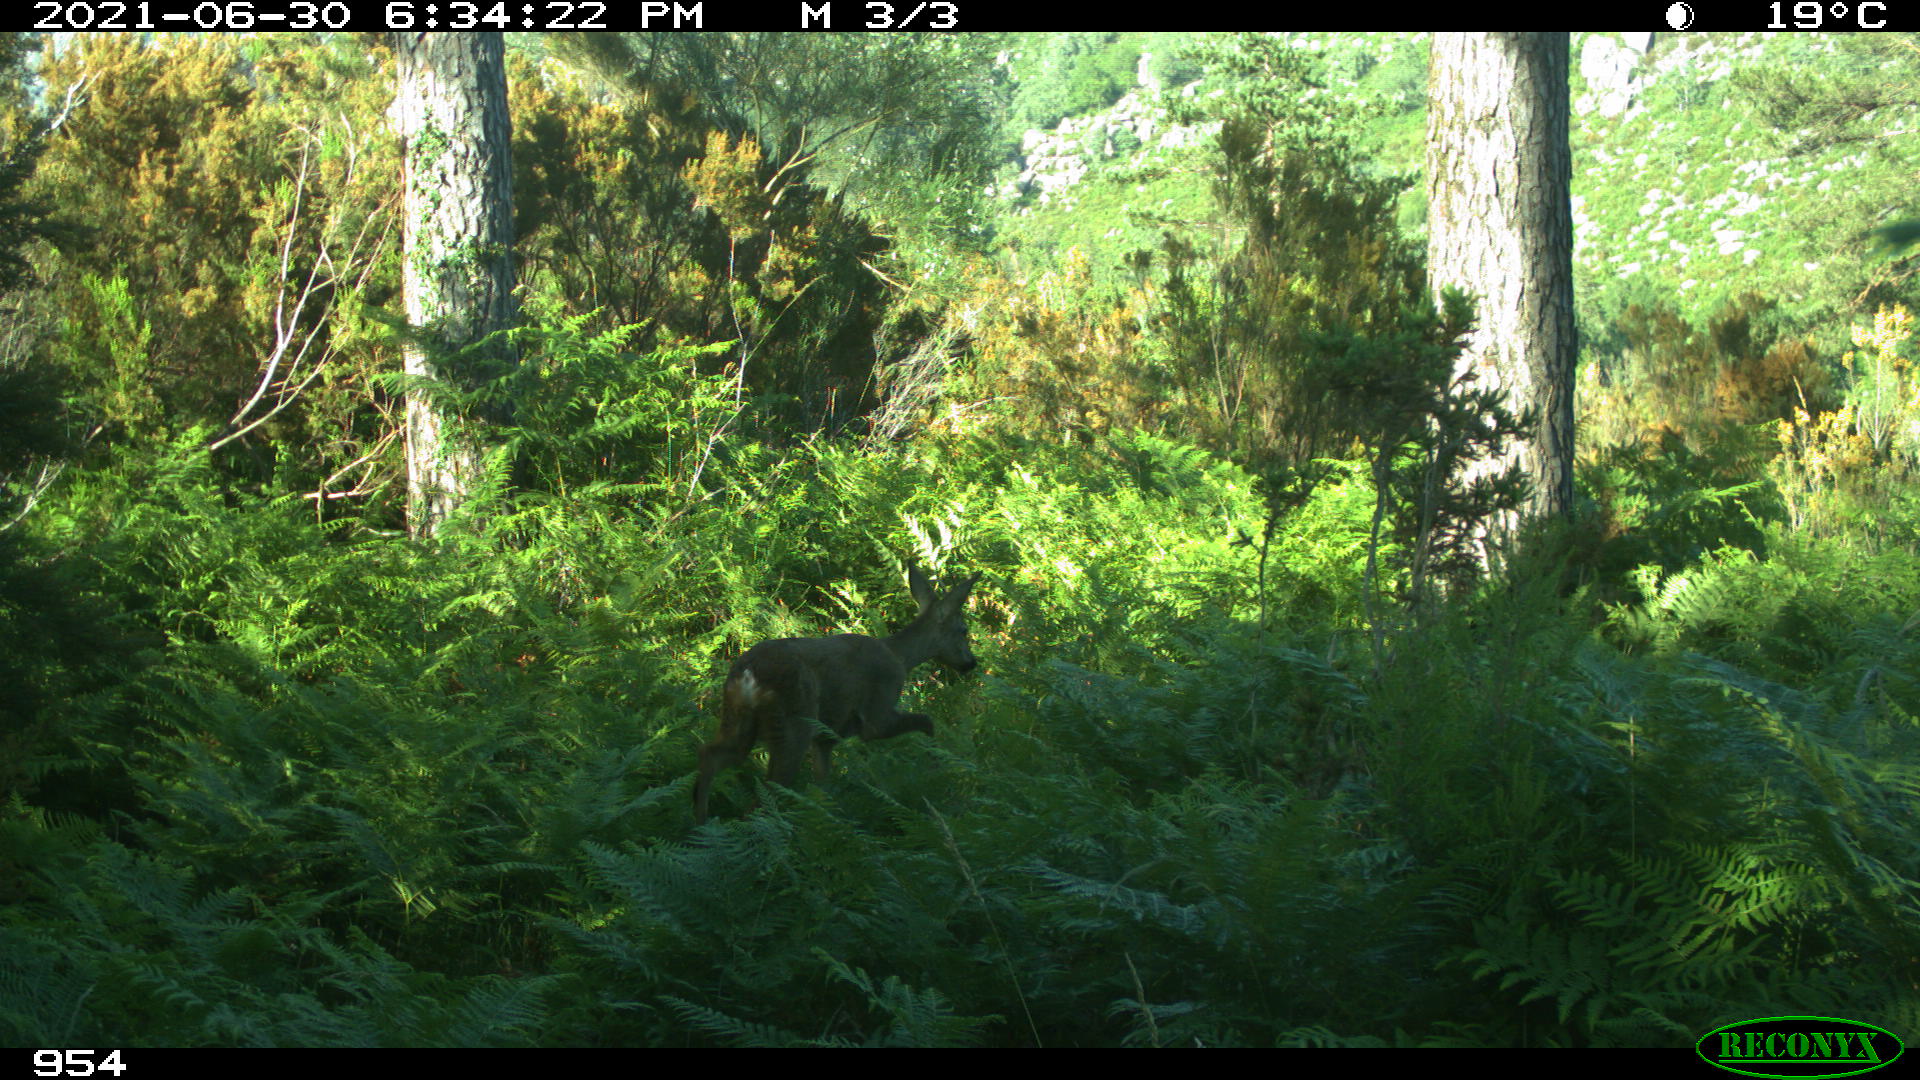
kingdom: Animalia
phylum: Chordata
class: Mammalia
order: Artiodactyla
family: Cervidae
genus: Capreolus
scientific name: Capreolus capreolus
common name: Western roe deer
